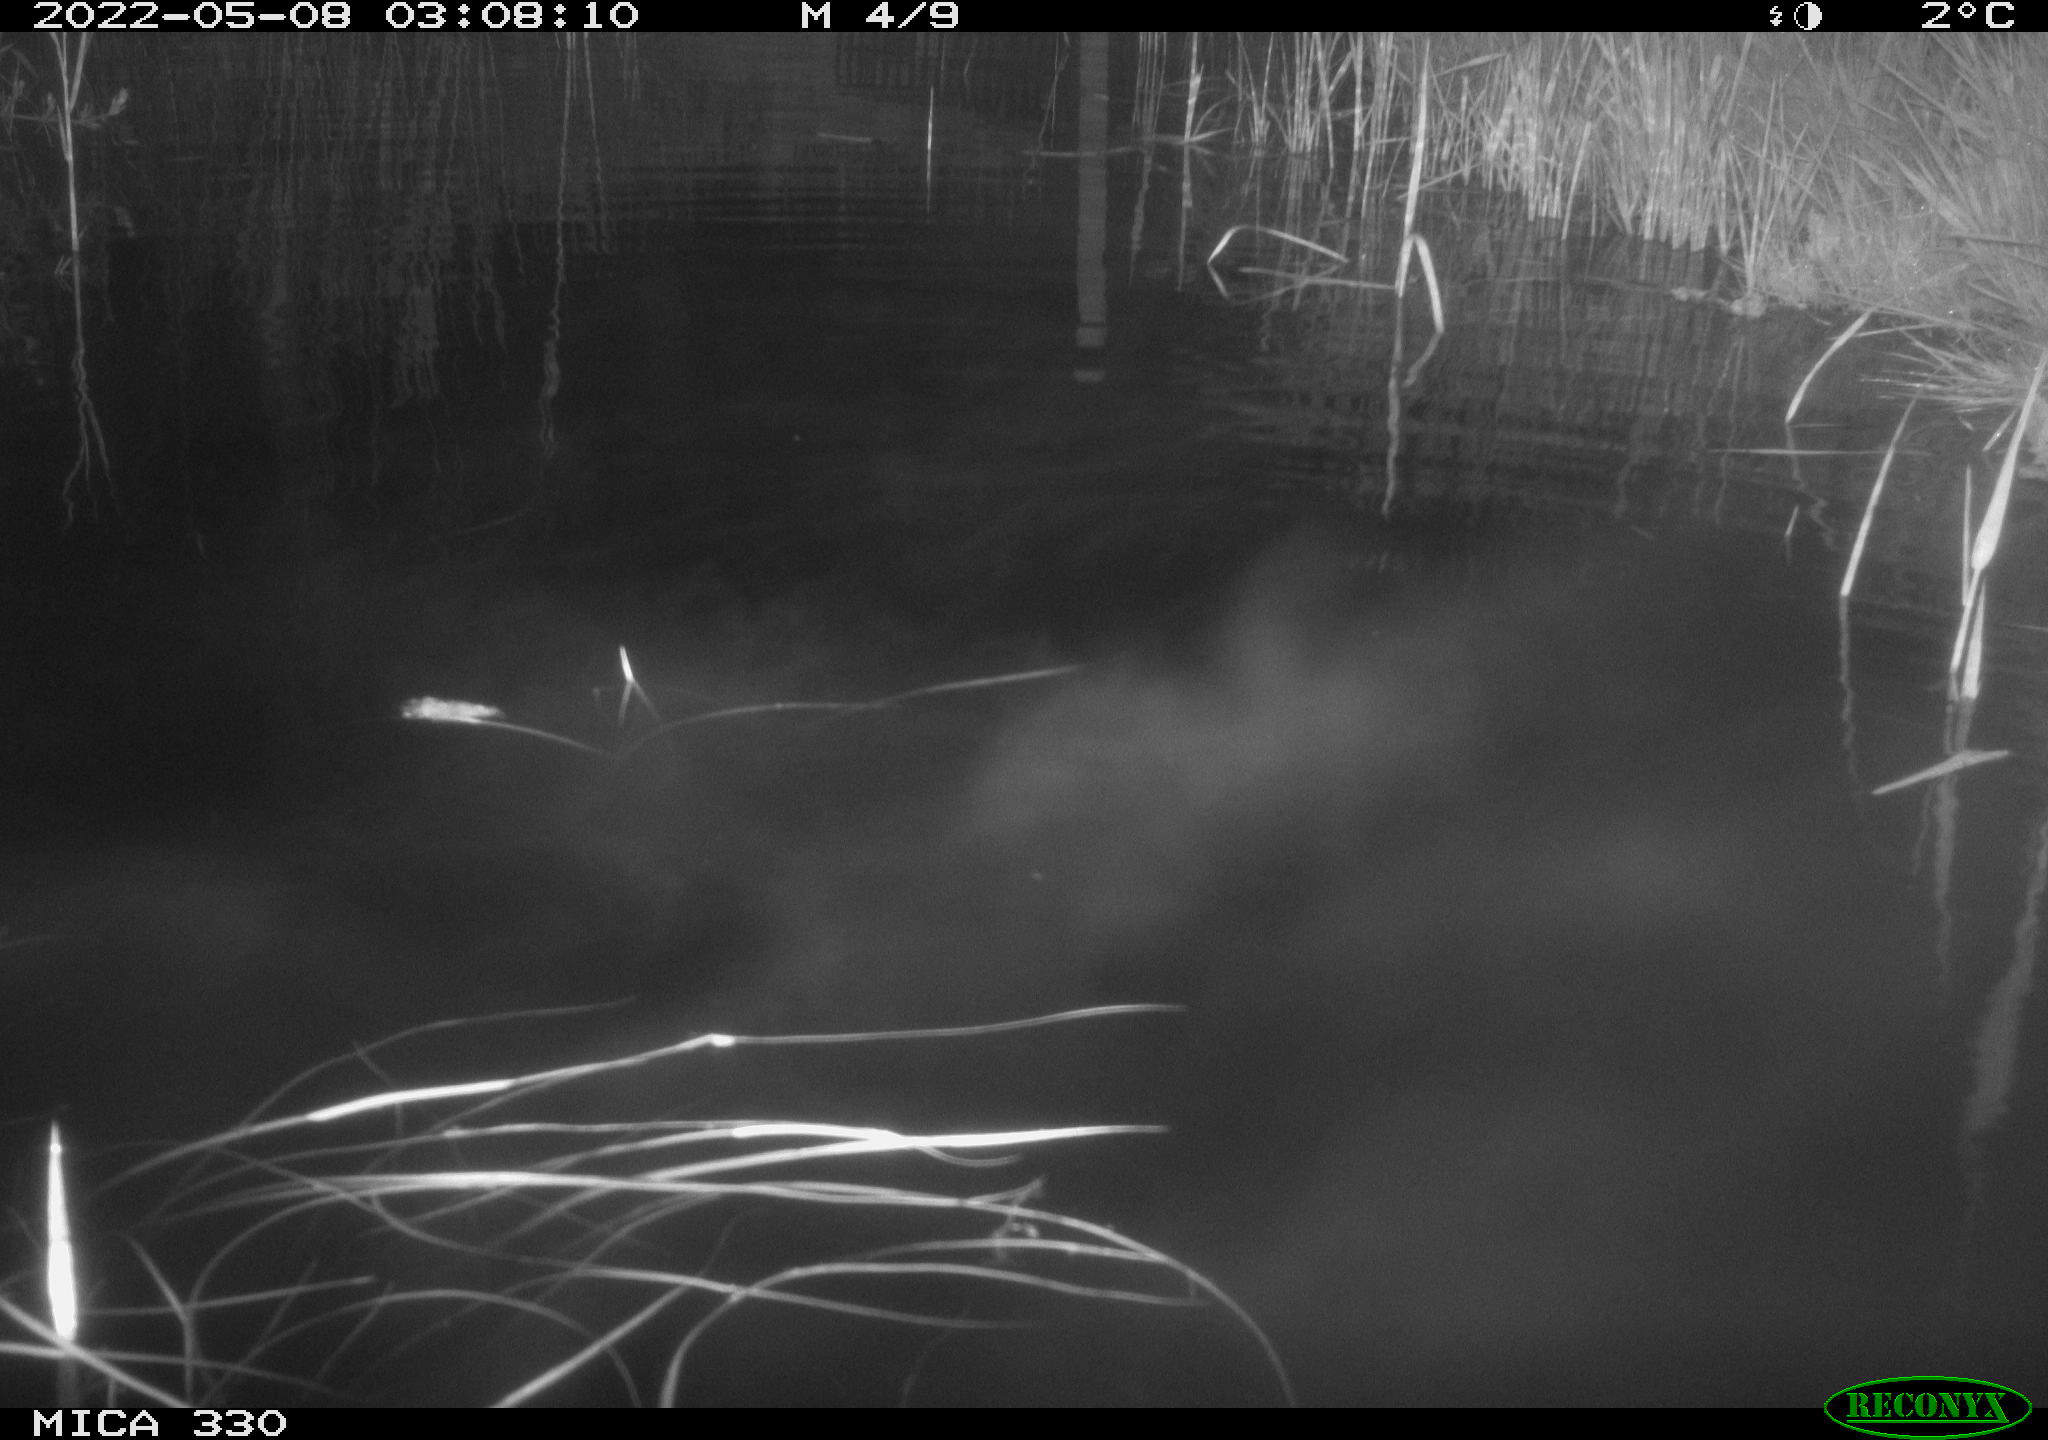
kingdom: Animalia
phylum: Chordata
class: Aves
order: Anseriformes
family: Anatidae
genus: Anas
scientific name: Anas platyrhynchos
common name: Mallard
